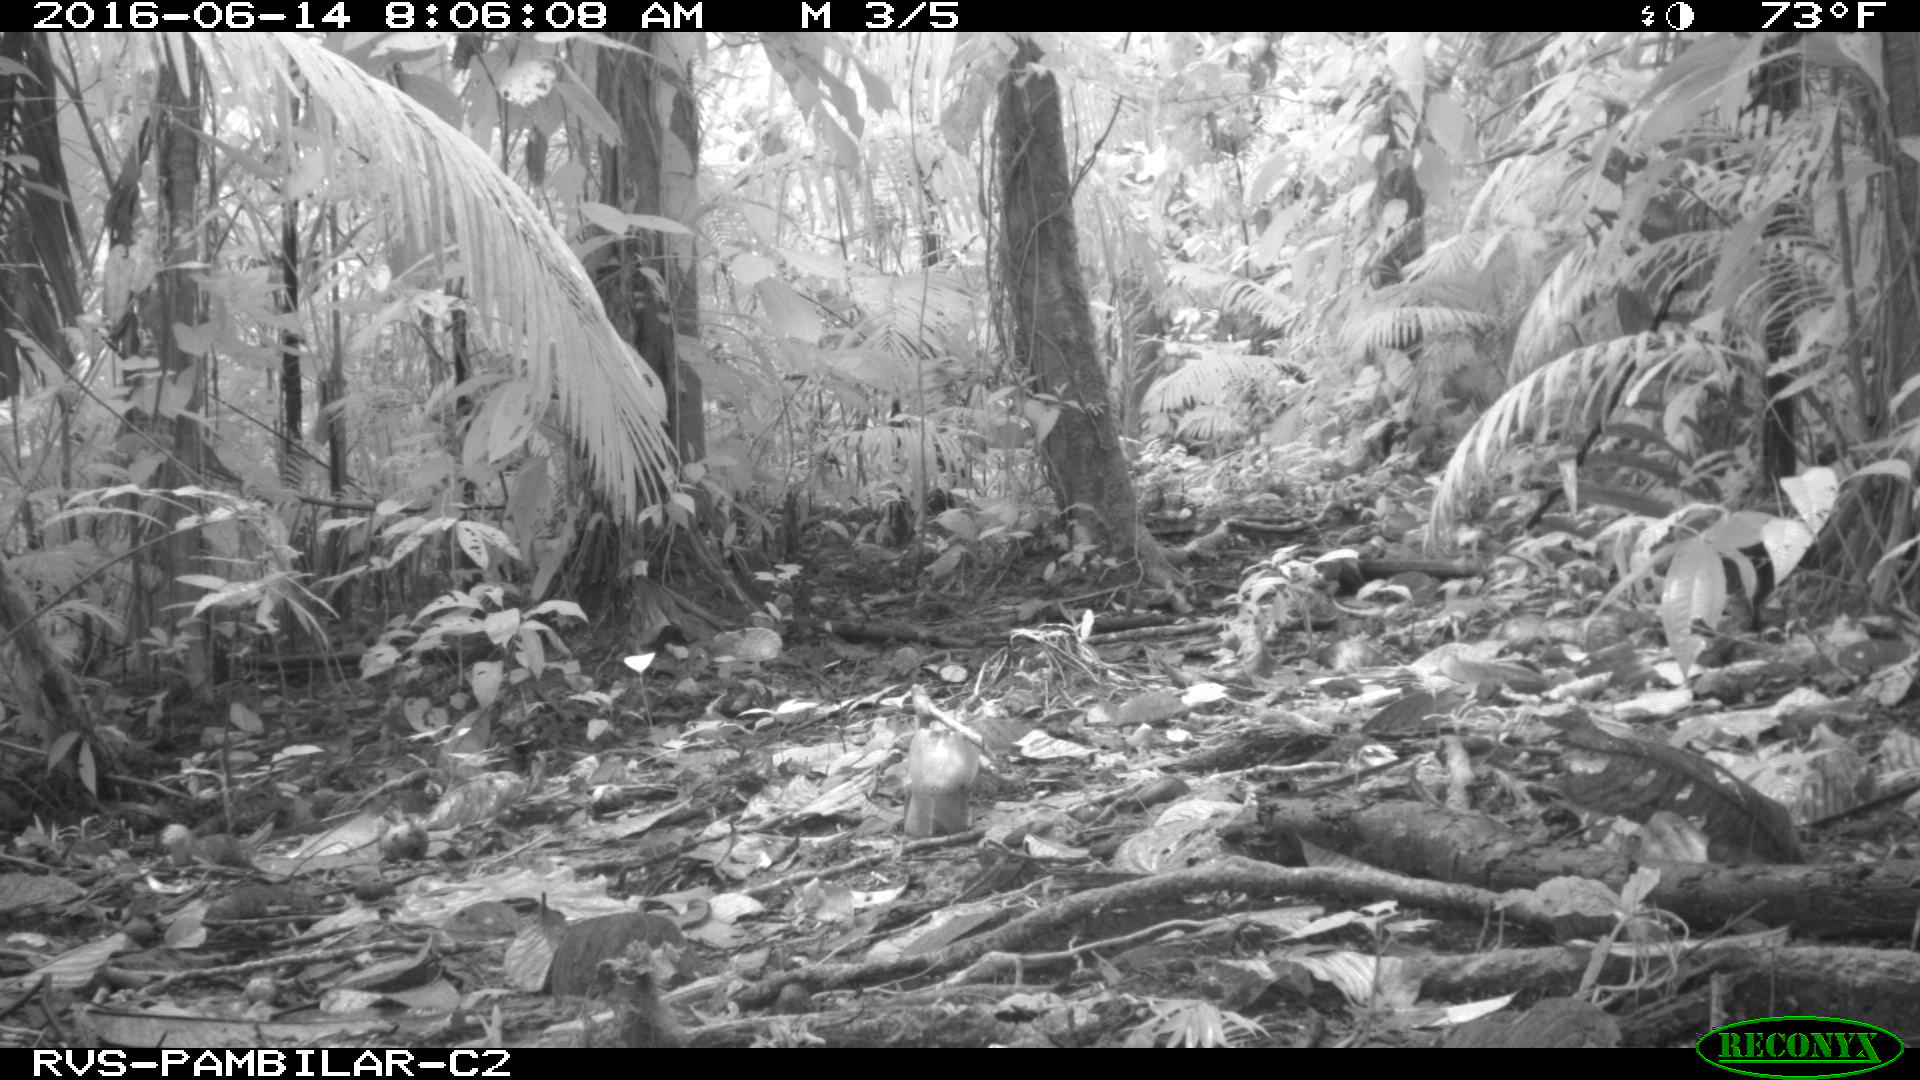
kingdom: Animalia
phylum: Chordata
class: Mammalia
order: Rodentia
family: Dasyproctidae
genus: Dasyprocta
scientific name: Dasyprocta punctata
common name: Central american agouti
